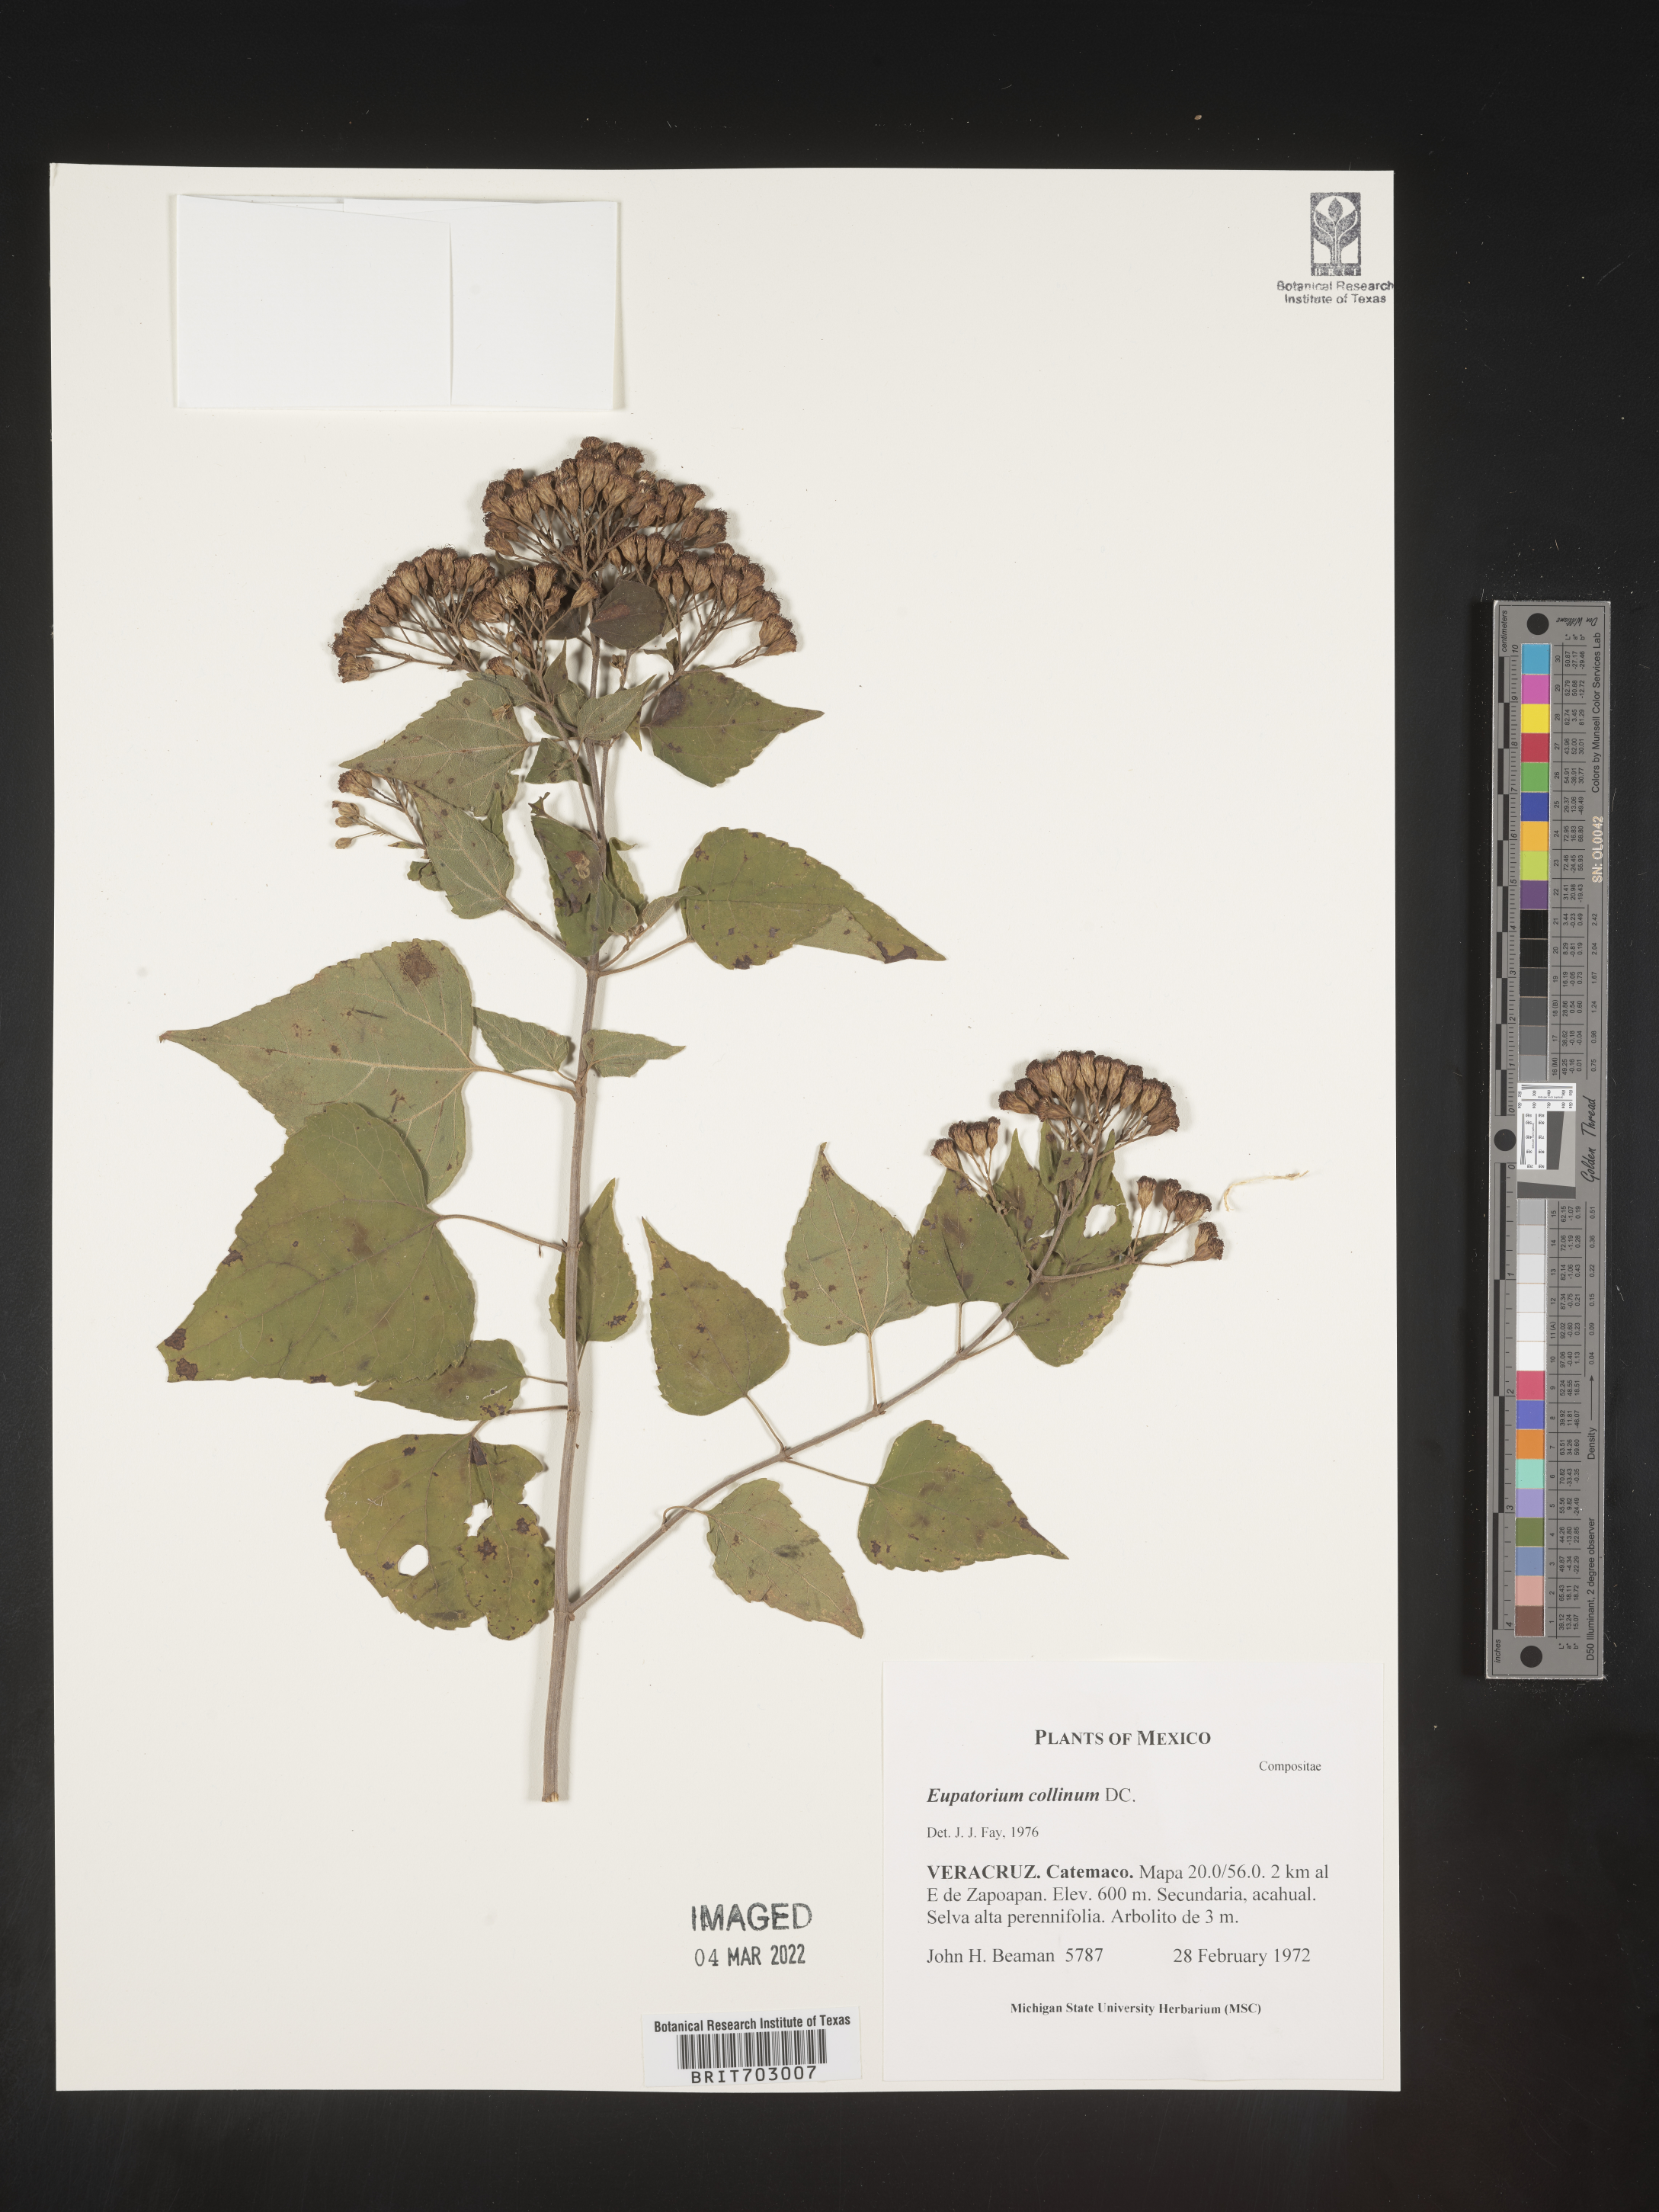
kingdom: Plantae
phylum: Tracheophyta
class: Magnoliopsida
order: Asterales
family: Asteraceae
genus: Eupatorium
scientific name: Eupatorium
